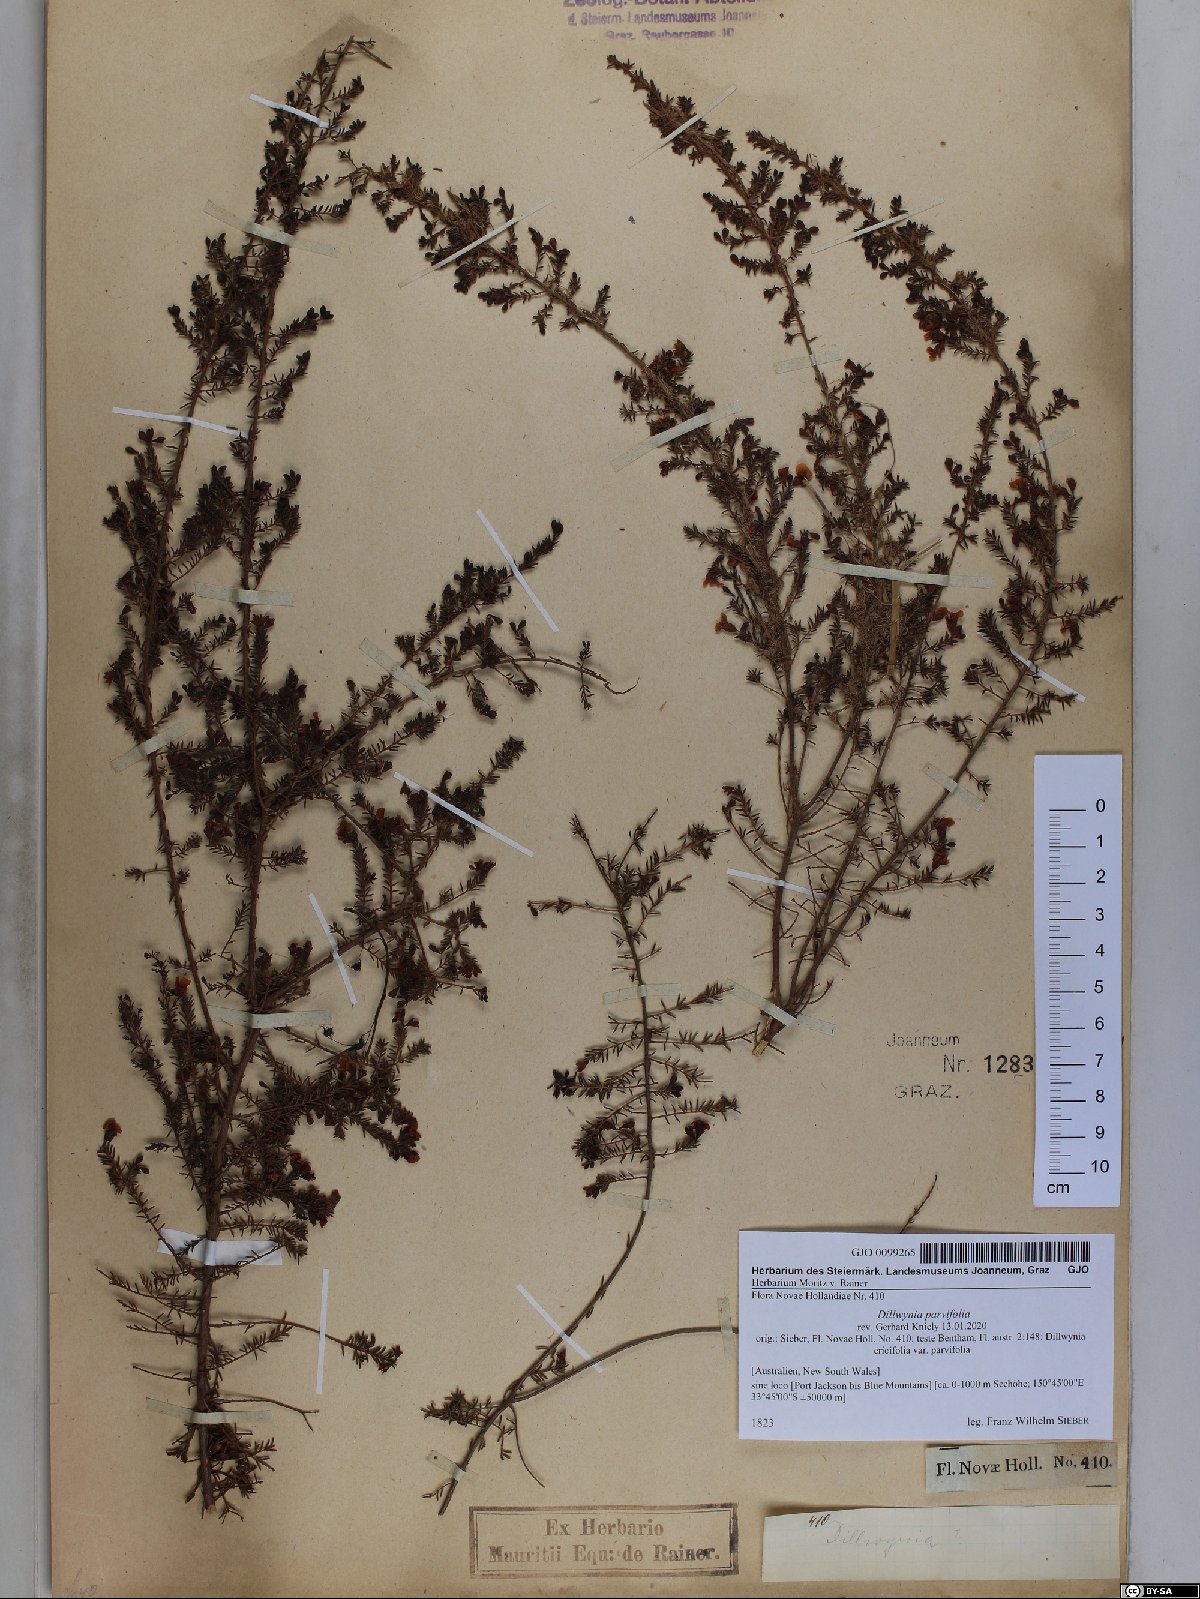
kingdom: Plantae
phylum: Tracheophyta
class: Magnoliopsida
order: Fabales
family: Fabaceae
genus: Dillwynia
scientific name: Dillwynia parvifolia
